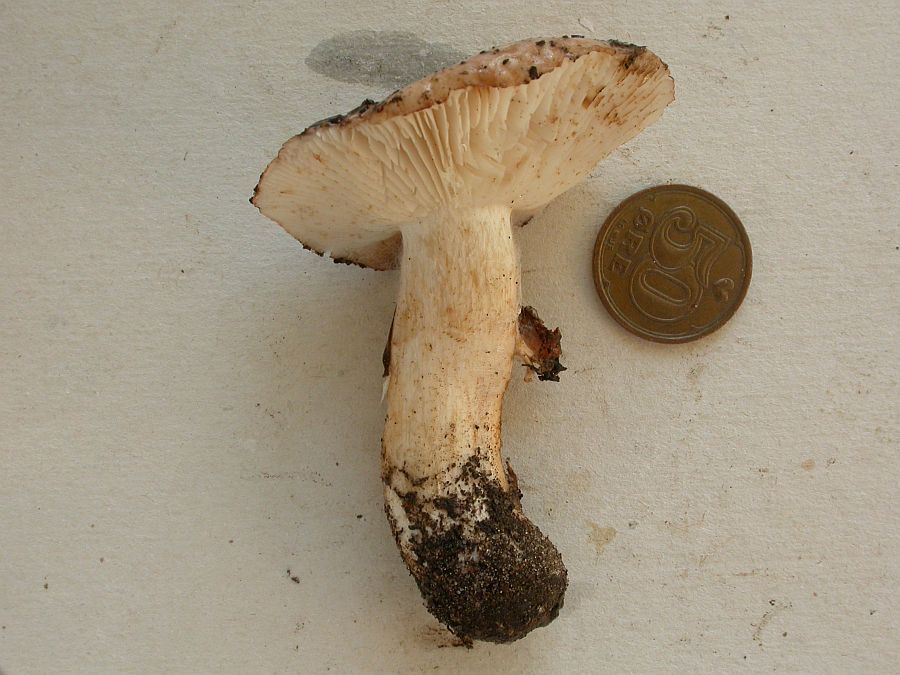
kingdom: Fungi
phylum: Basidiomycota
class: Agaricomycetes
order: Agaricales
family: Tricholomataceae
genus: Tricholoma
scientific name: Tricholoma stans
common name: stolt ridderhat
